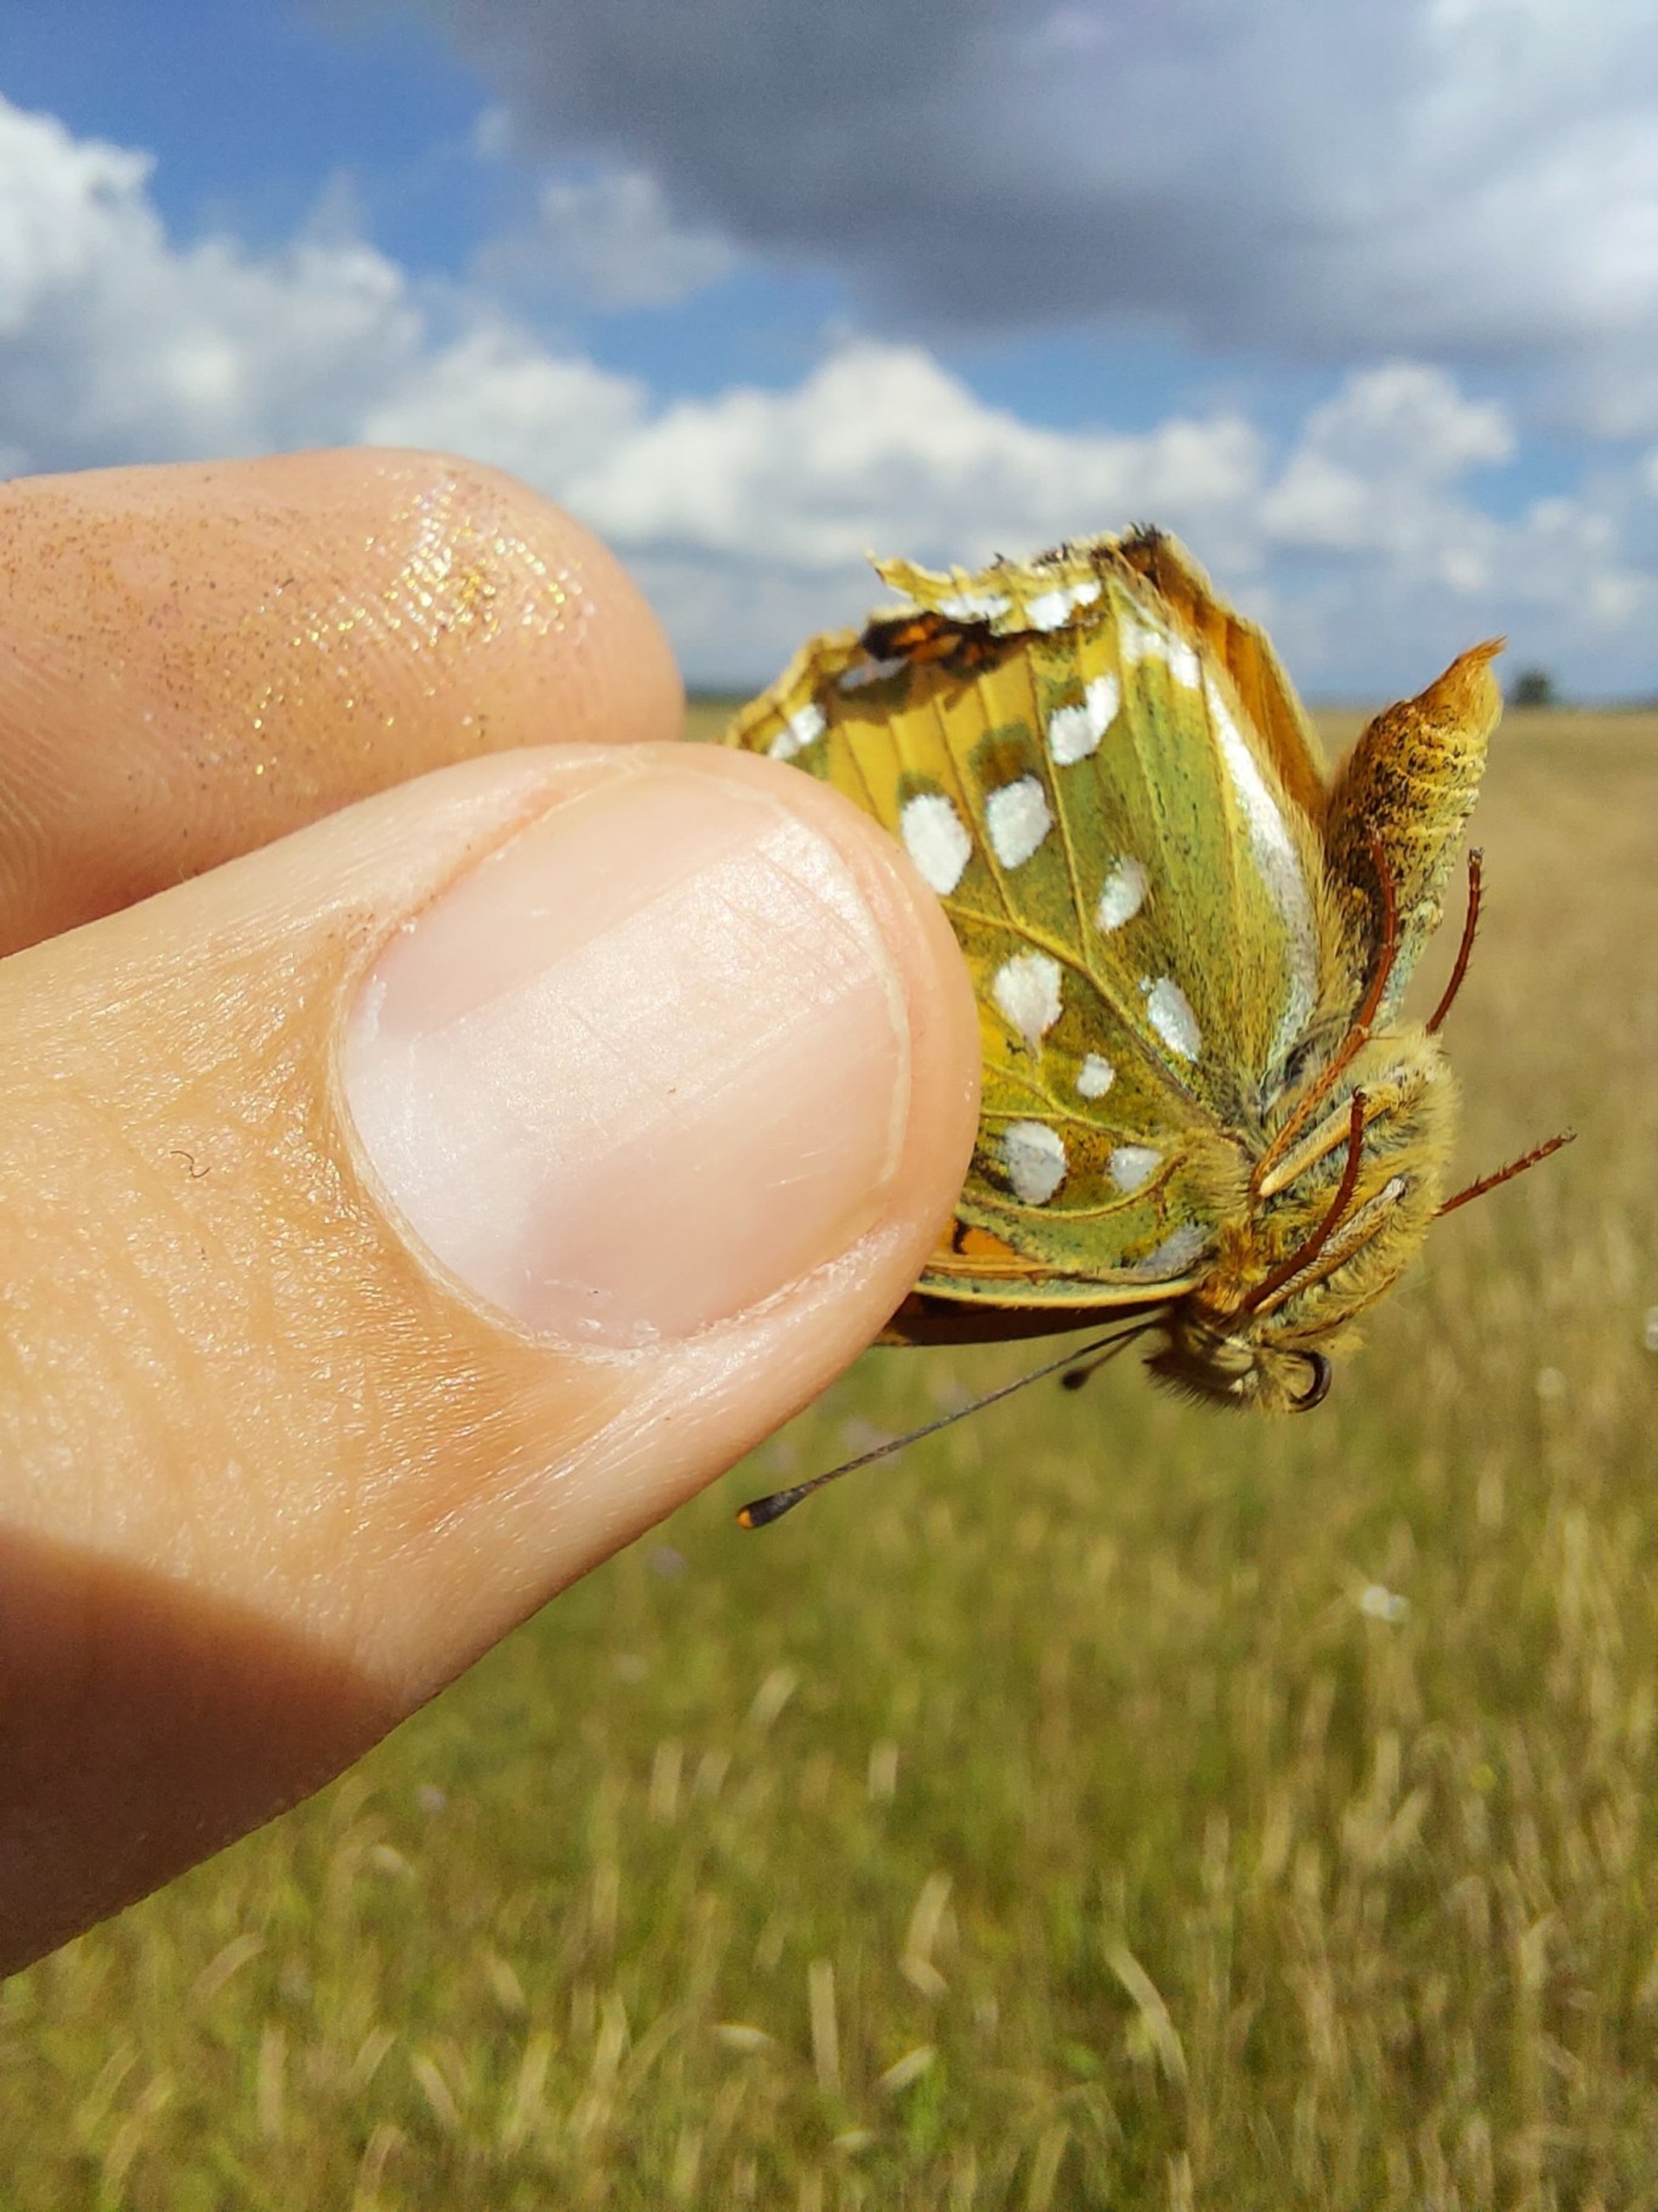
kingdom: Animalia
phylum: Arthropoda
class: Insecta
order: Lepidoptera
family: Nymphalidae
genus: Speyeria
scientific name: Speyeria aglaja
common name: Markperlemorsommerfugl
